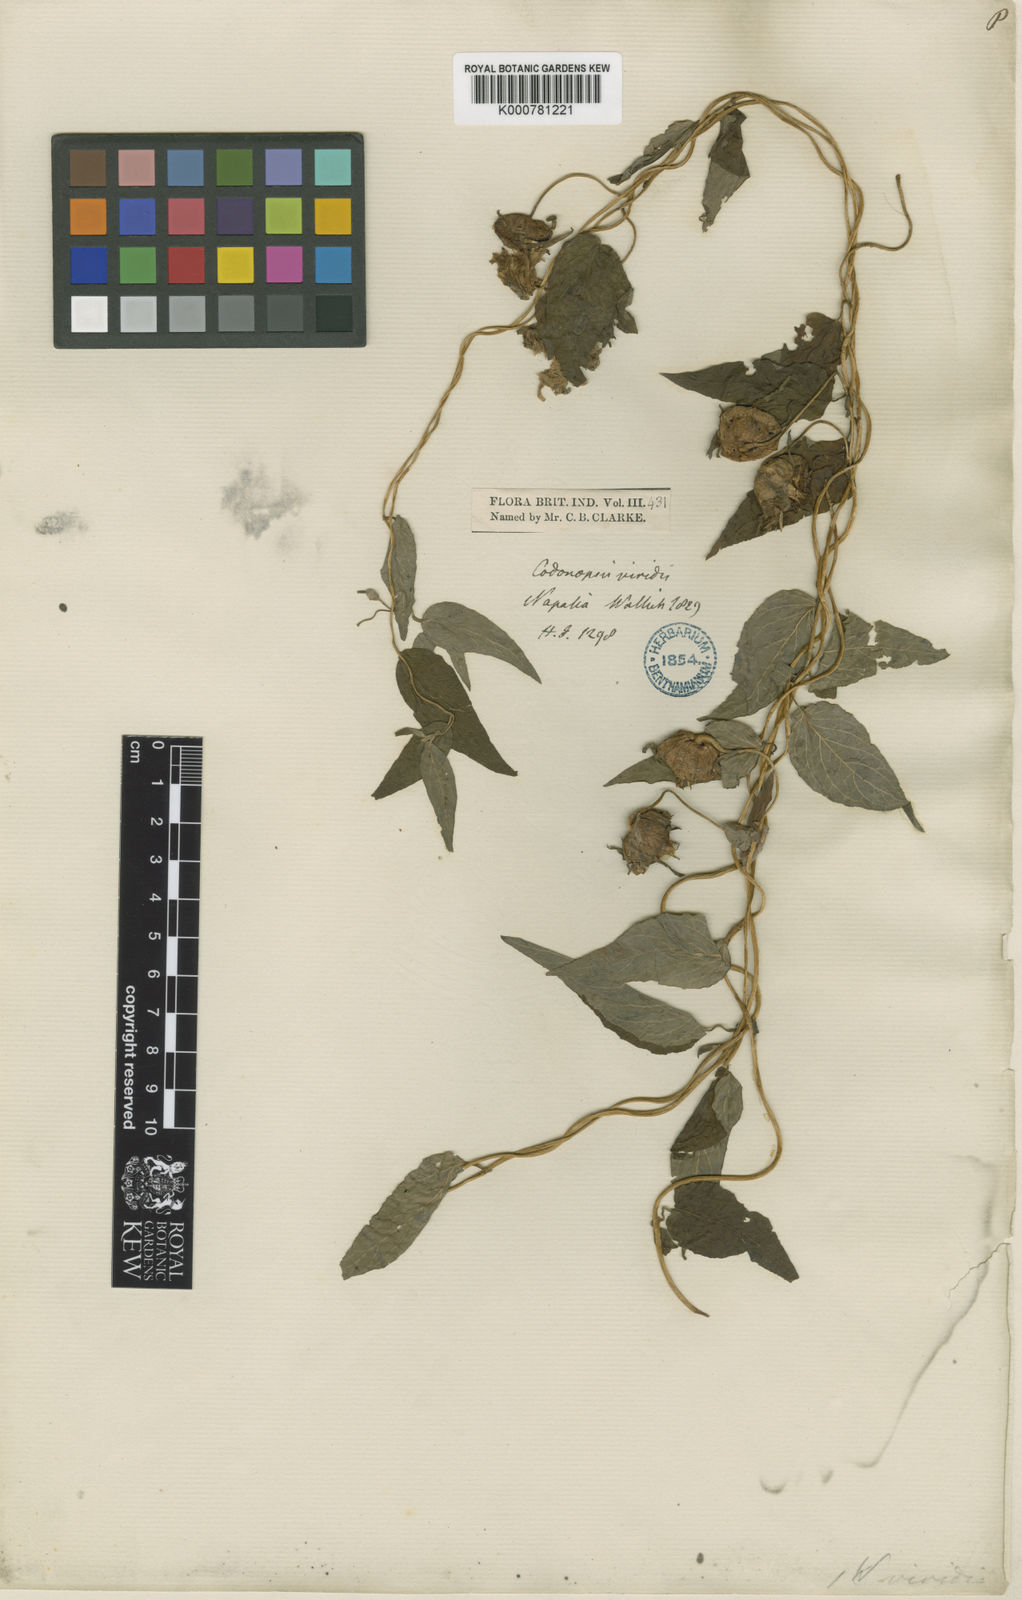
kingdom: Plantae
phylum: Tracheophyta
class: Magnoliopsida
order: Asterales
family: Campanulaceae
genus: Codonopsis
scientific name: Codonopsis viridis
